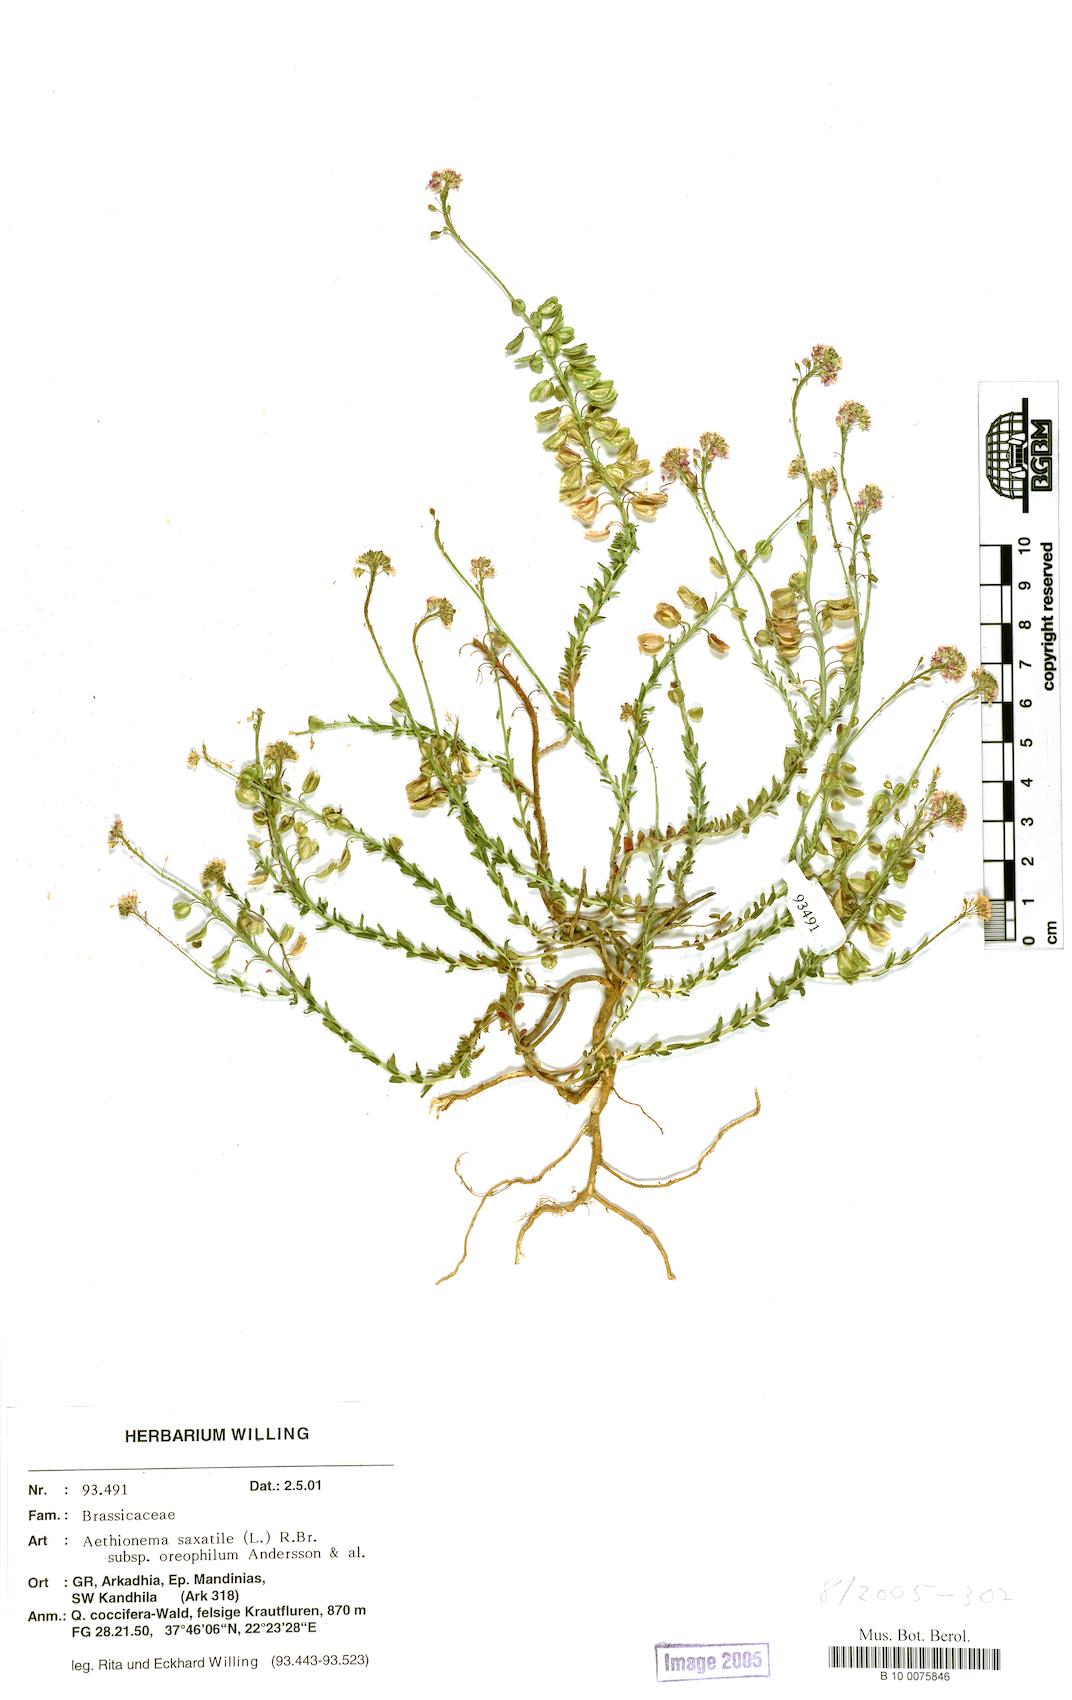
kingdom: Plantae
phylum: Tracheophyta
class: Magnoliopsida
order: Brassicales
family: Brassicaceae
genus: Aethionema
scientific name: Aethionema saxatile
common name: Burnt candytuft
